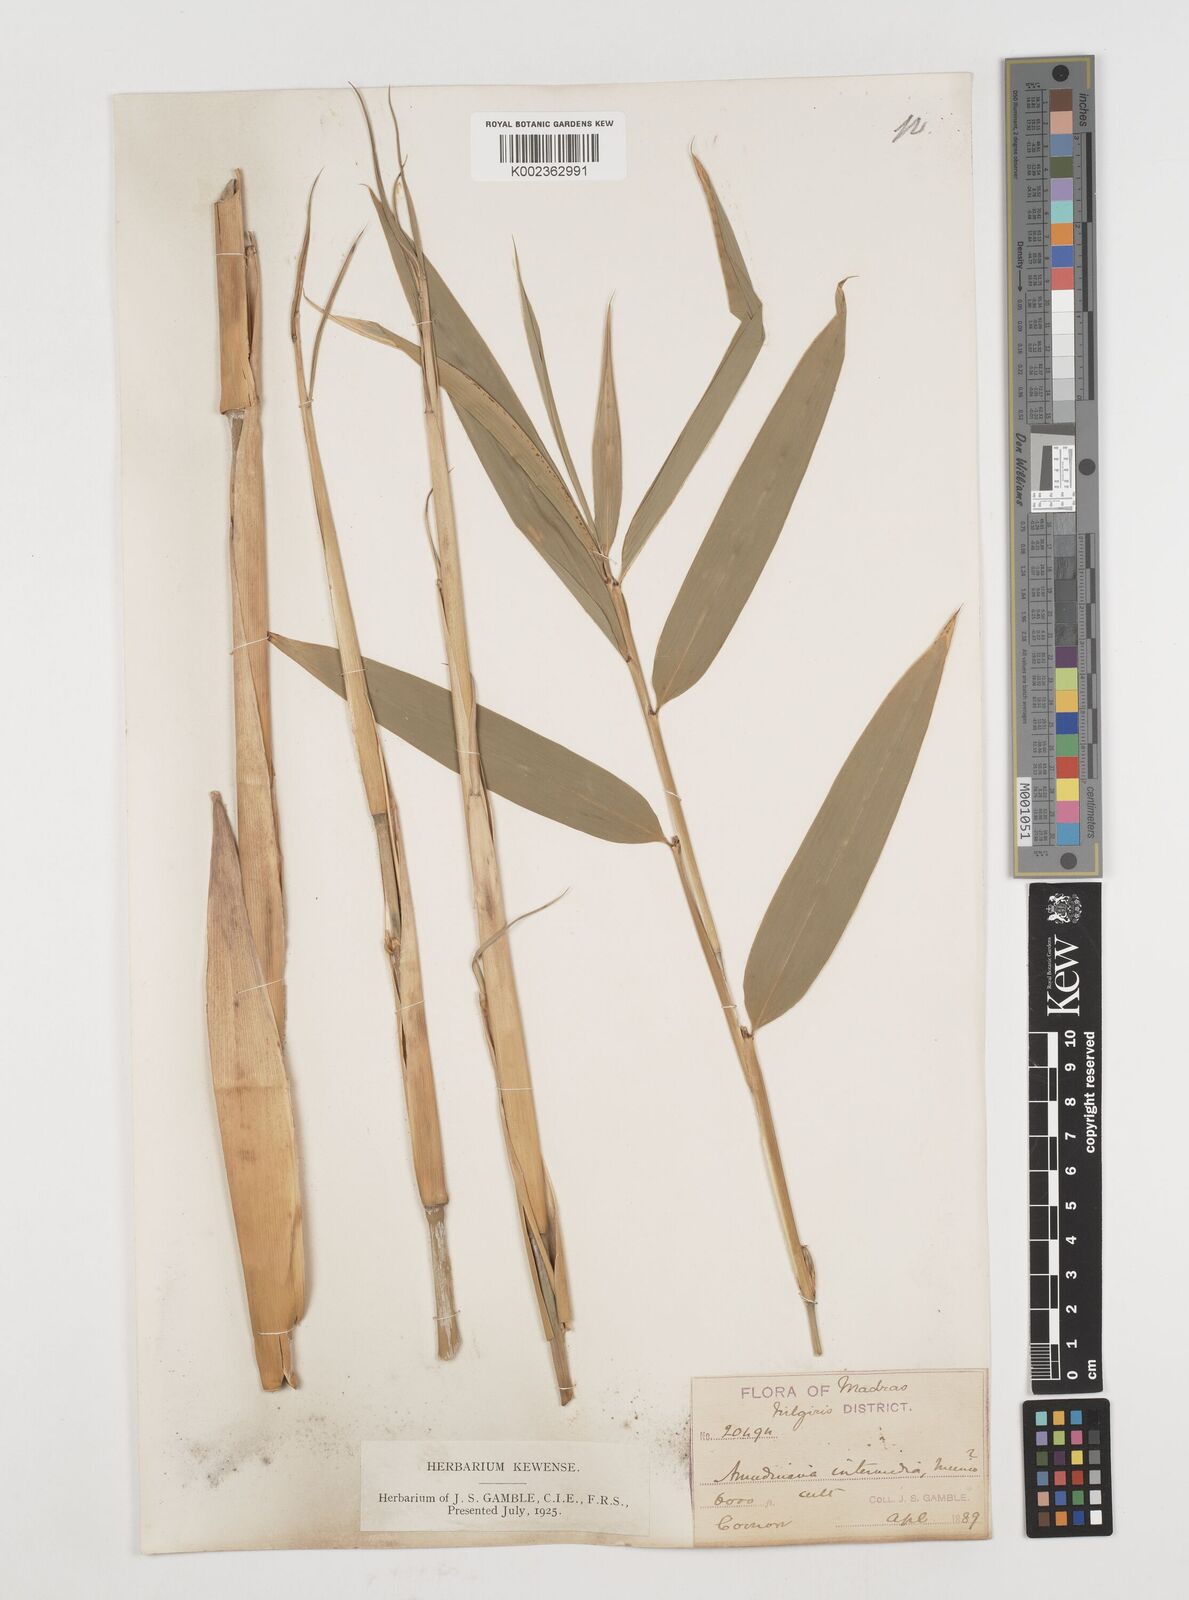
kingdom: Plantae
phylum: Tracheophyta
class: Liliopsida
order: Poales
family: Poaceae
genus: Drepanostachyum
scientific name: Drepanostachyum intermedium
